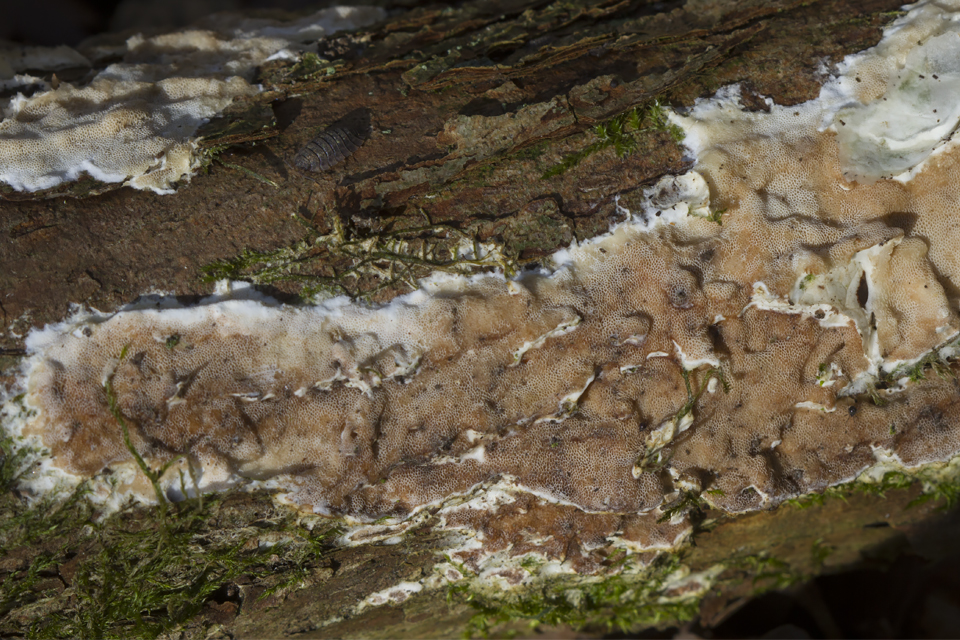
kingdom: Fungi
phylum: Basidiomycota
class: Agaricomycetes
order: Polyporales
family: Irpicaceae
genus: Vitreoporus
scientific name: Vitreoporus dichrous
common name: tofarvet foldporesvamp
